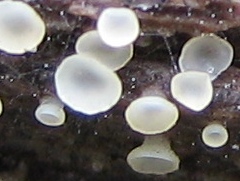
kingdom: Fungi
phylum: Ascomycota
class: Orbiliomycetes
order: Orbiliales
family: Orbiliaceae
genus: Hyalorbilia
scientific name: Hyalorbilia
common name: voksskive
